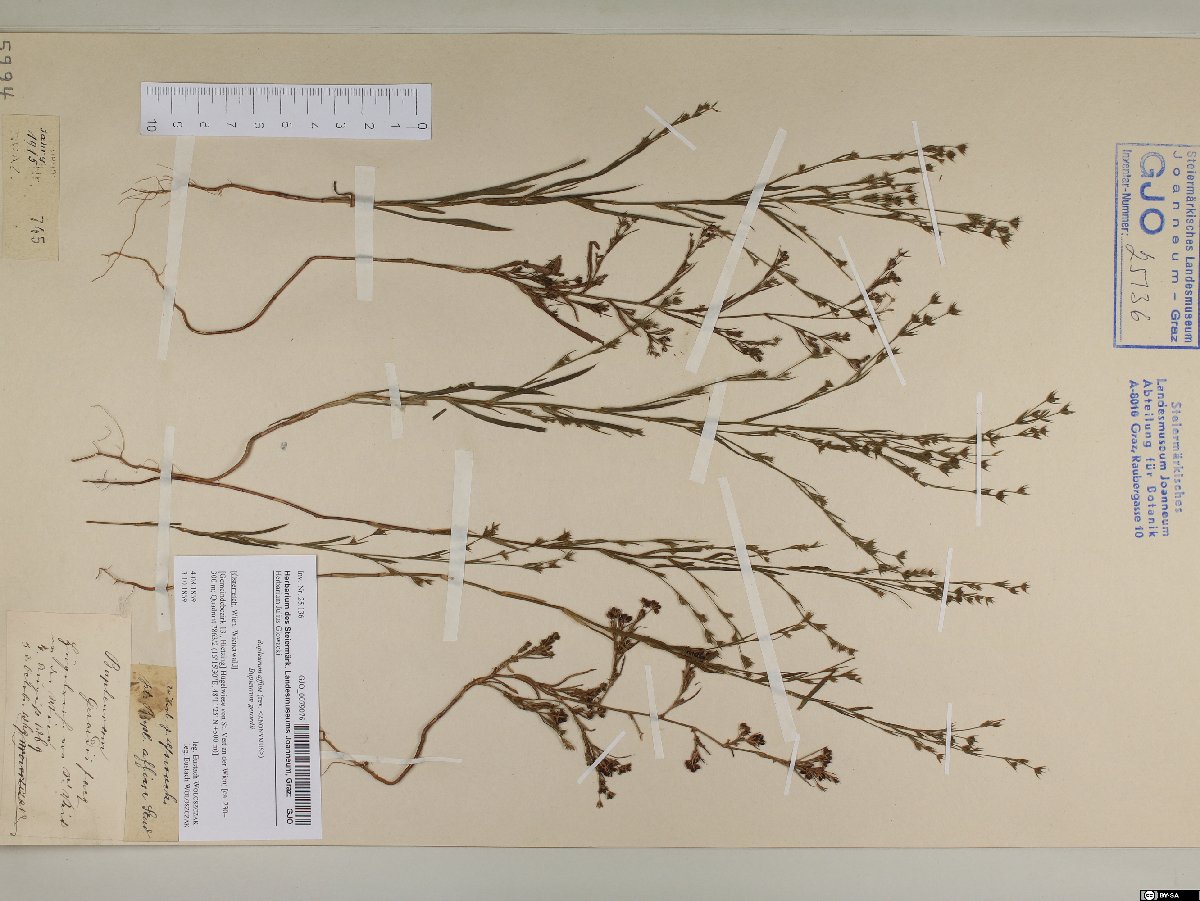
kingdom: Plantae
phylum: Tracheophyta
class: Magnoliopsida
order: Apiales
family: Apiaceae
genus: Bupleurum
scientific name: Bupleurum affine
